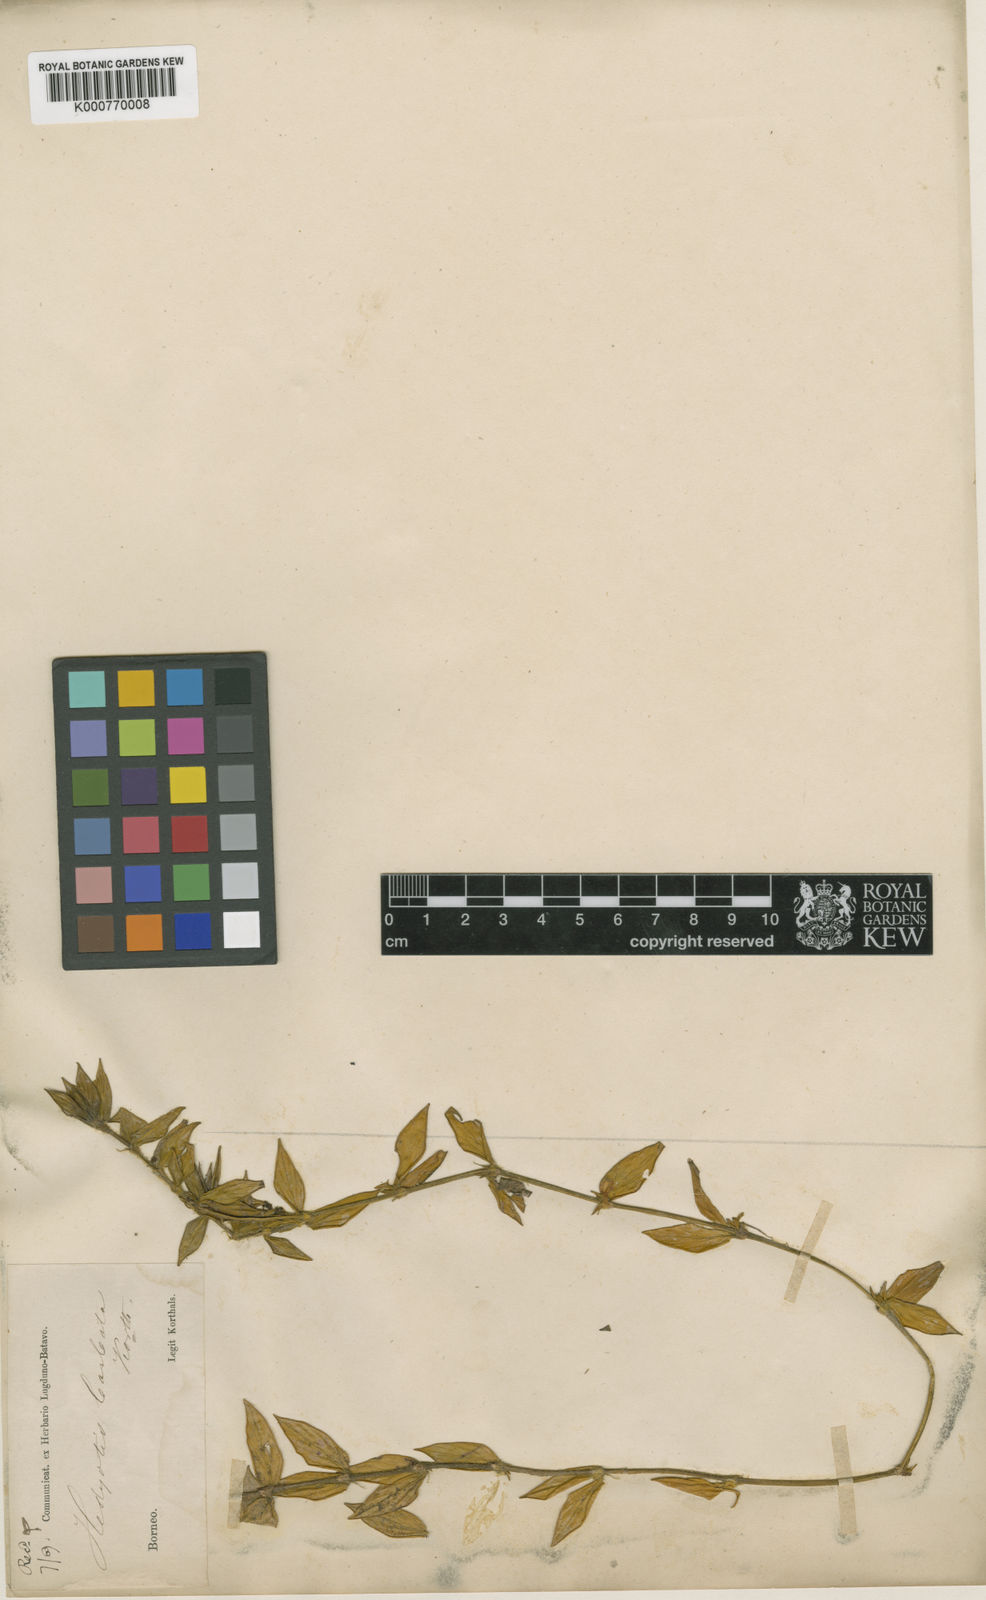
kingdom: Plantae
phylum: Tracheophyta
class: Magnoliopsida
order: Gentianales
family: Rubiaceae
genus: Exallage
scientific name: Exallage barbata
